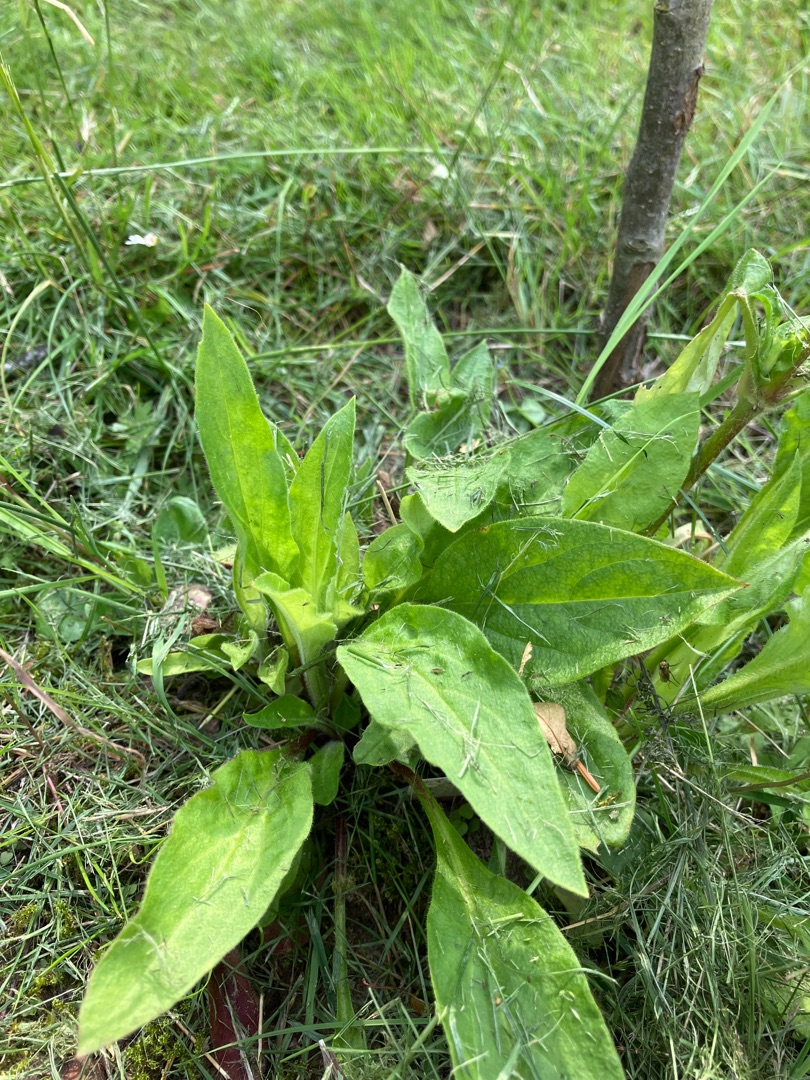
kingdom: Plantae
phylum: Tracheophyta
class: Magnoliopsida
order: Caryophyllales
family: Caryophyllaceae
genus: Silene
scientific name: Silene dioica
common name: Dagpragtstjerne
